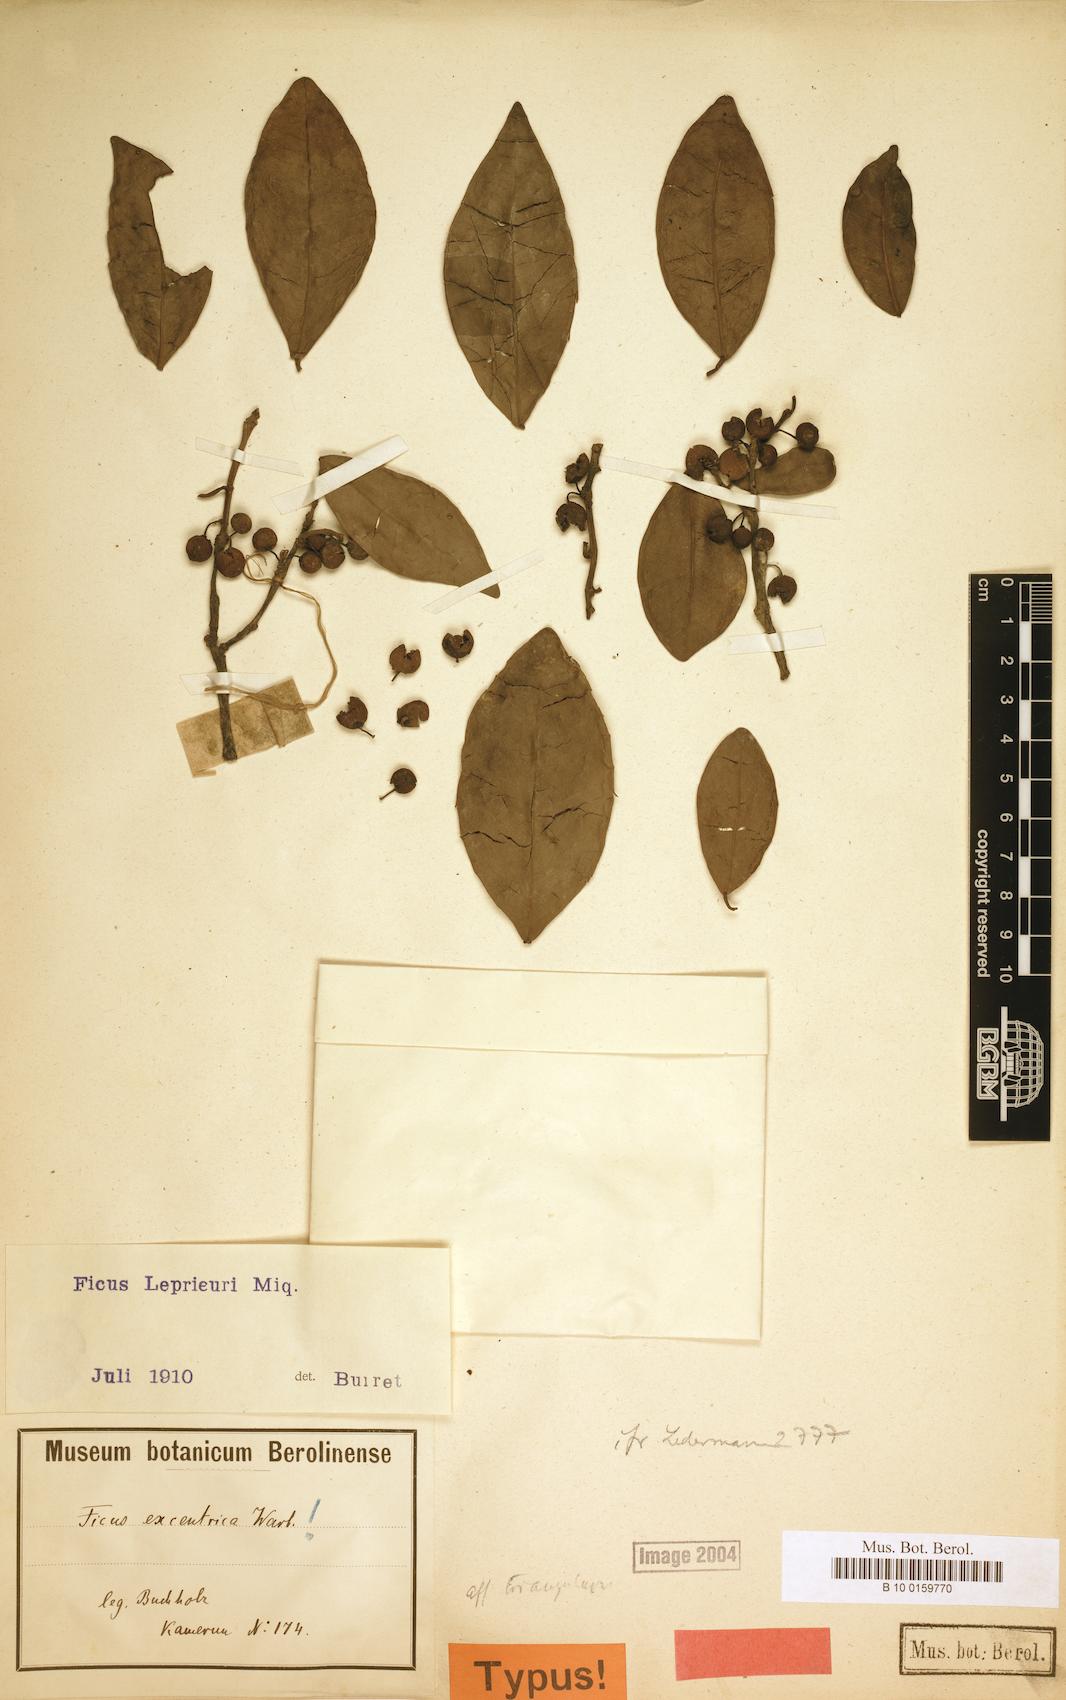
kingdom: Plantae
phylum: Tracheophyta
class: Magnoliopsida
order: Rosales
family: Moraceae
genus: Ficus
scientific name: Ficus natalensis
